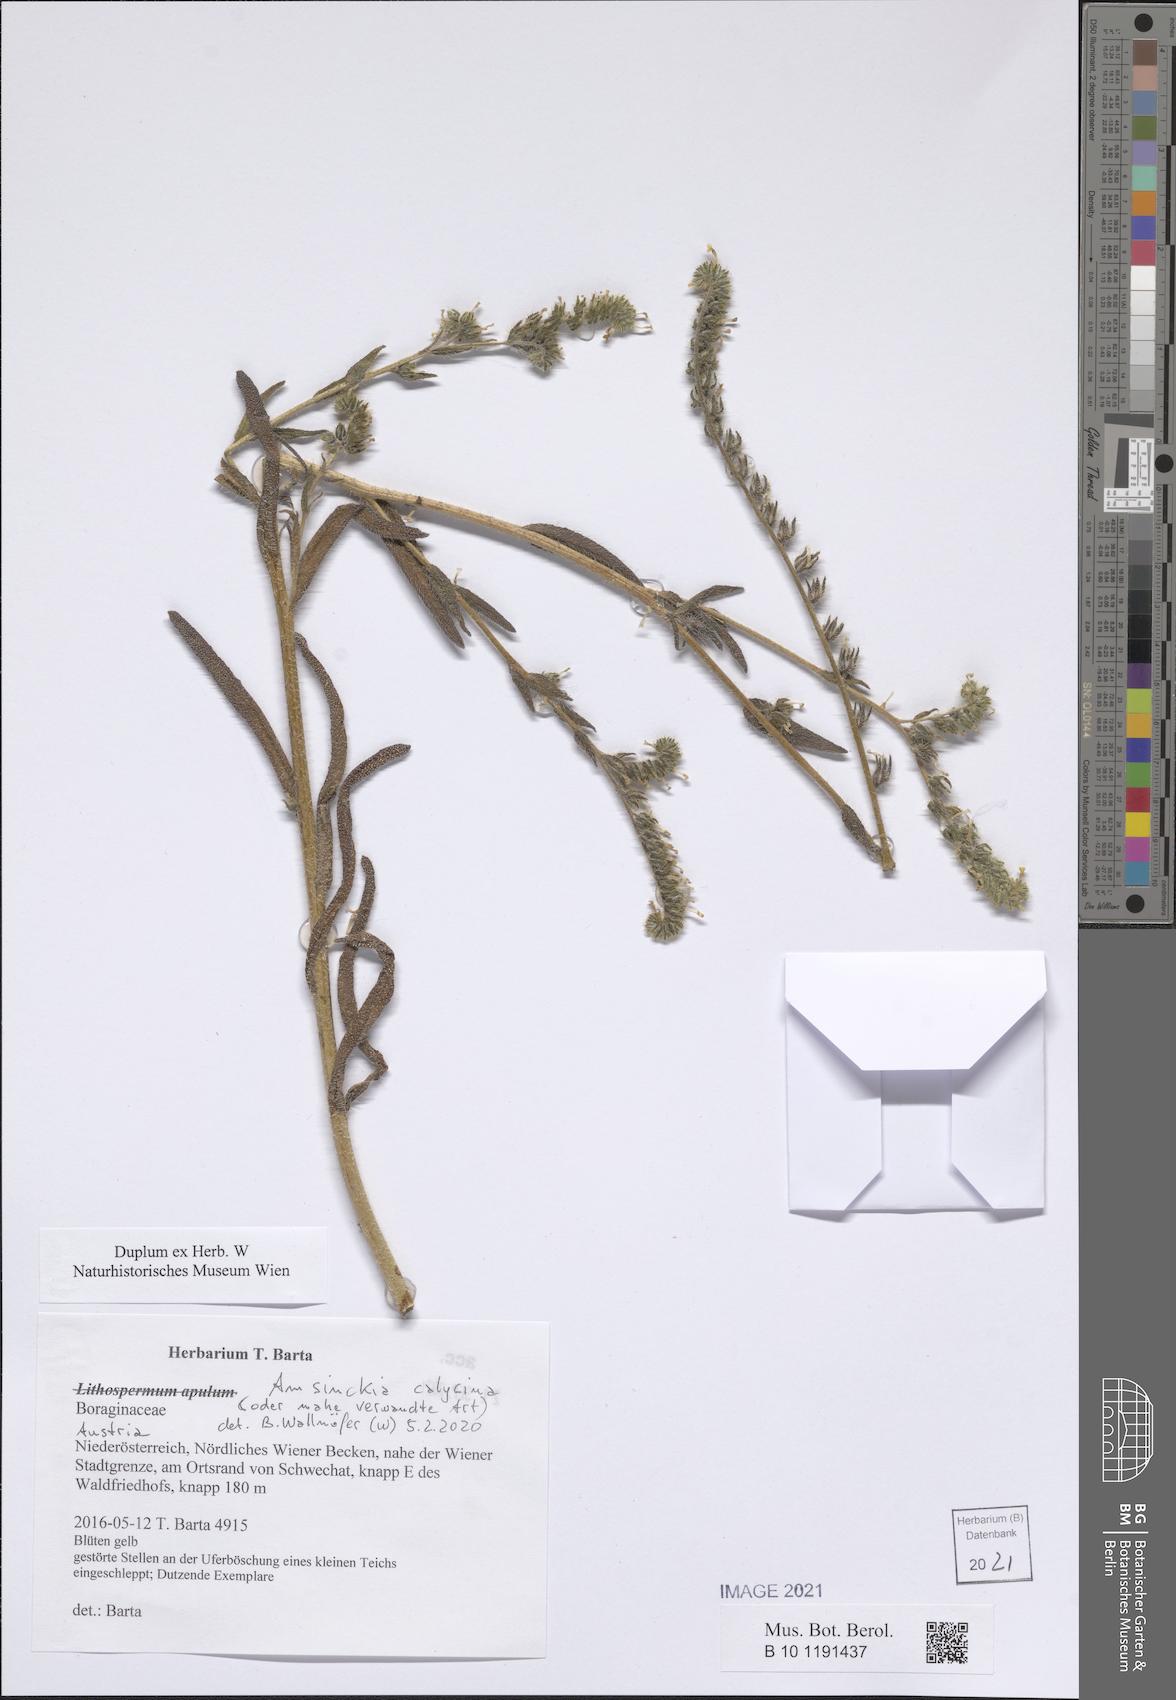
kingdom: Plantae
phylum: Tracheophyta
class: Magnoliopsida
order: Boraginales
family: Boraginaceae
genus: Amsinckia
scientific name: Amsinckia calycina
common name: Hairy fiddleneck
